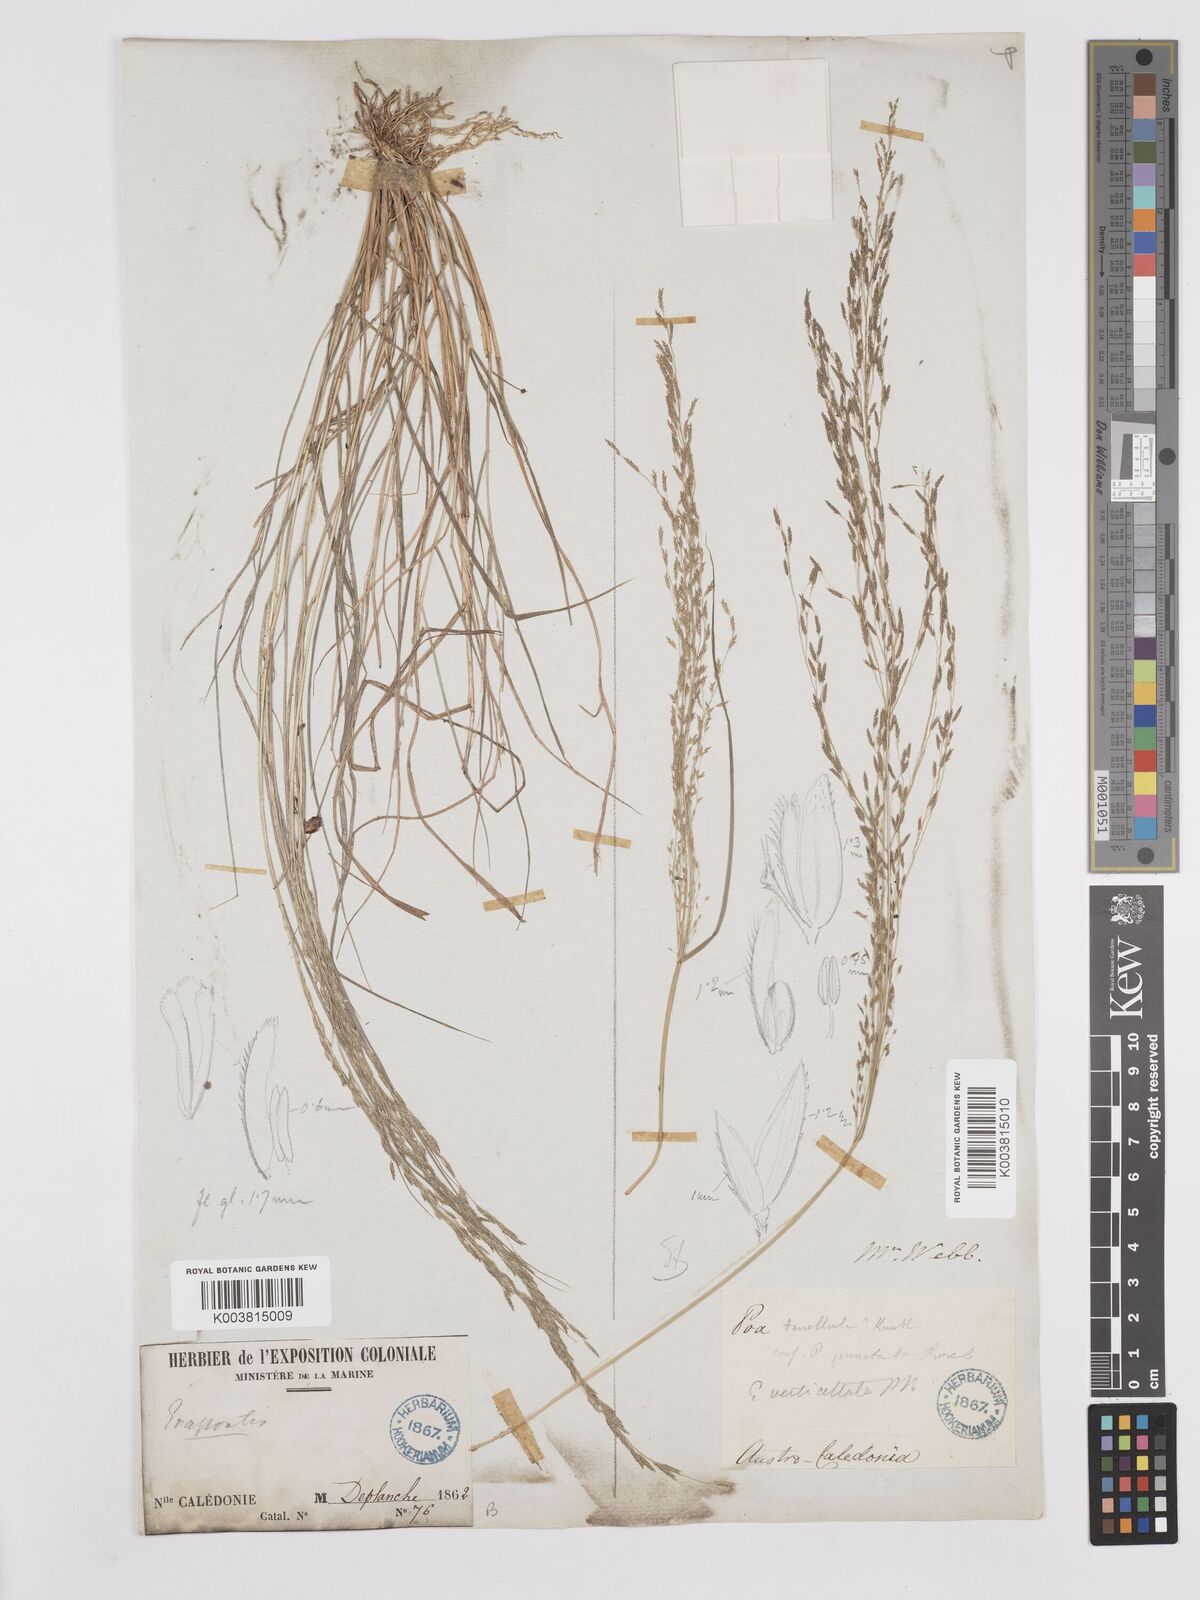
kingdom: Plantae
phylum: Tracheophyta
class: Liliopsida
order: Poales
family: Poaceae
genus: Eragrostis
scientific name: Eragrostis parviflora
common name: Weeping love-grass
